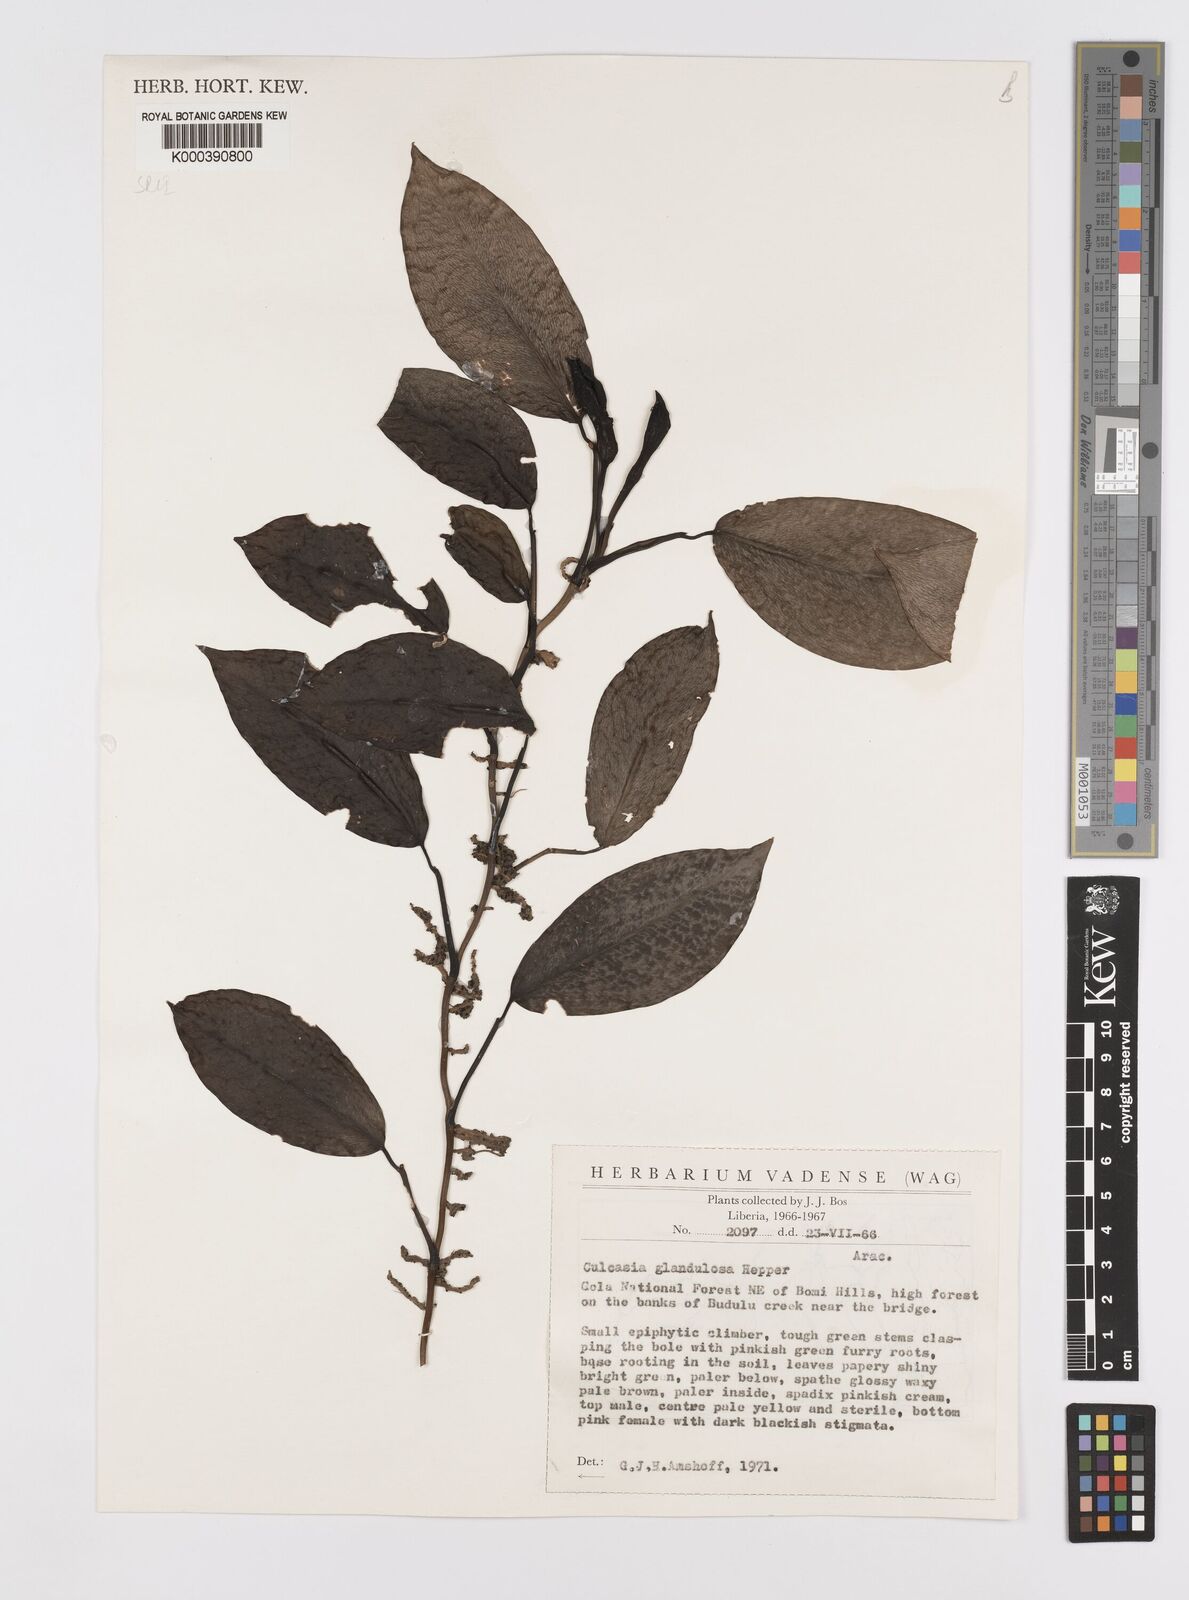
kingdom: Plantae
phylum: Tracheophyta
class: Liliopsida
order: Alismatales
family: Araceae
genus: Culcasia
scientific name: Culcasia glandulosa
